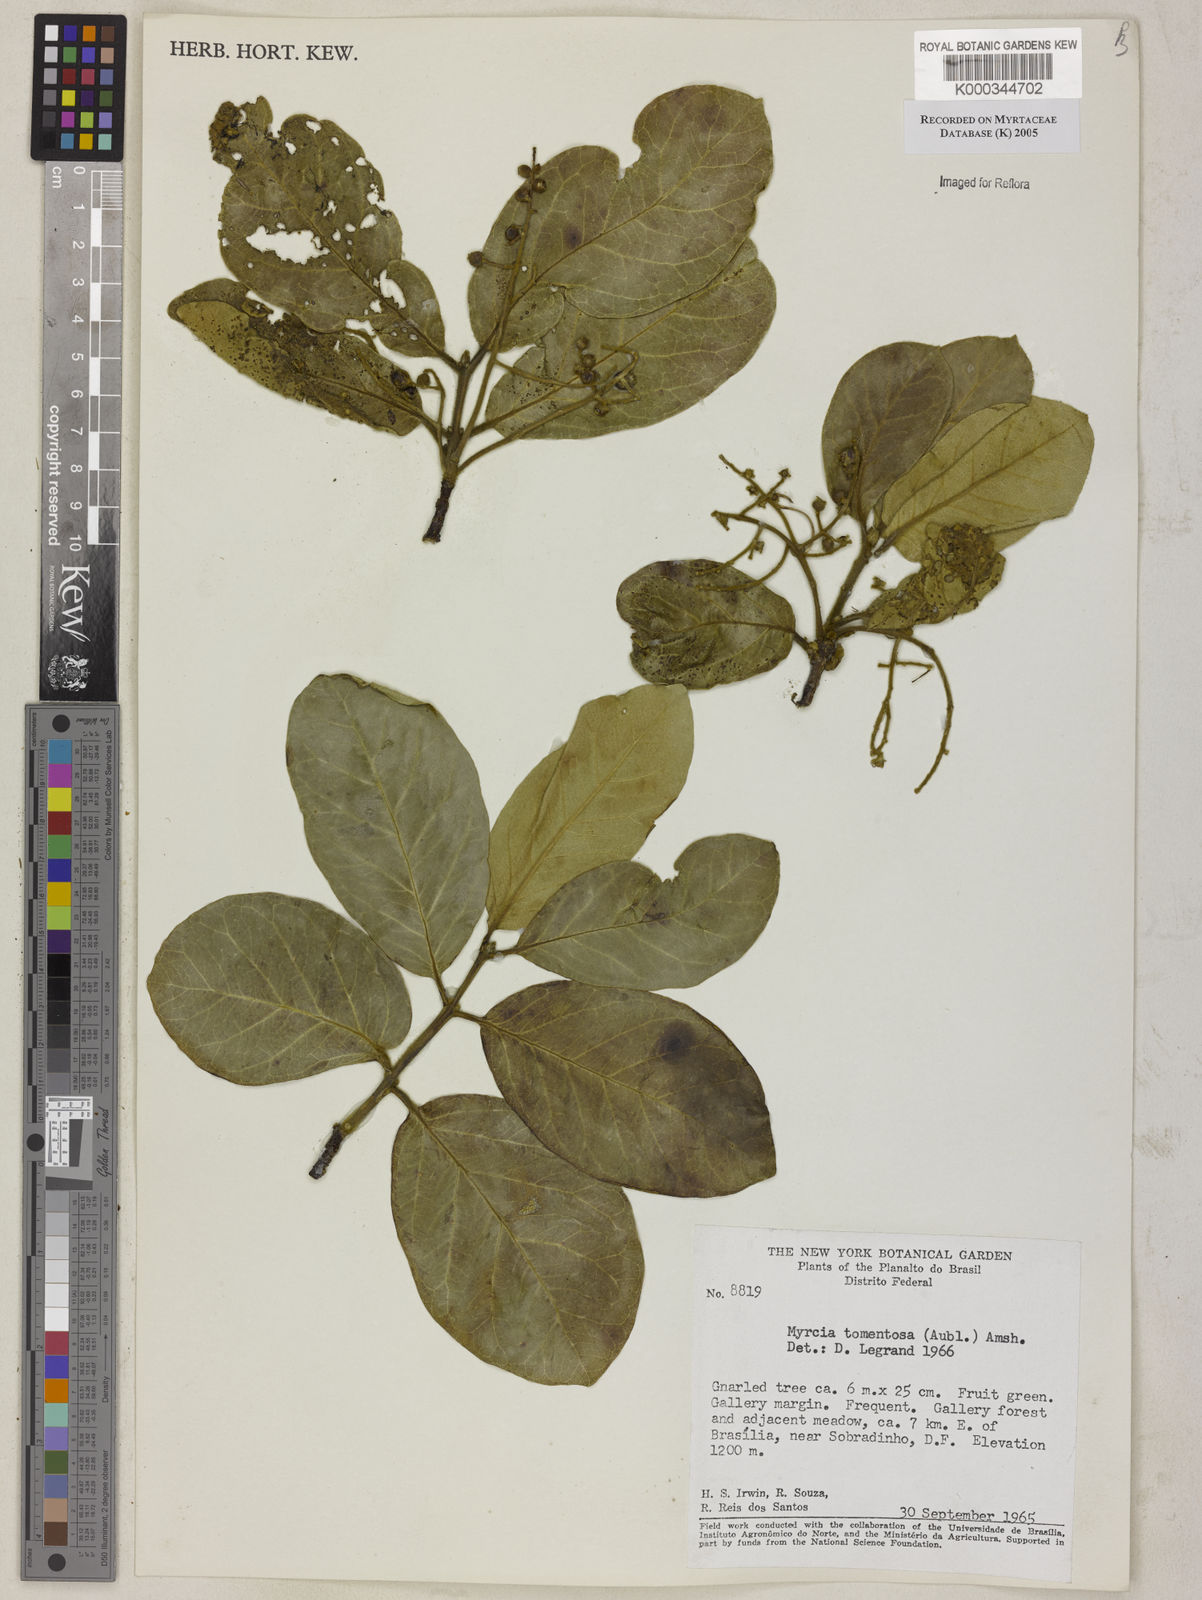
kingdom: Plantae
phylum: Tracheophyta
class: Magnoliopsida
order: Myrtales
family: Myrtaceae
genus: Myrcia
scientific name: Myrcia tomentosa
